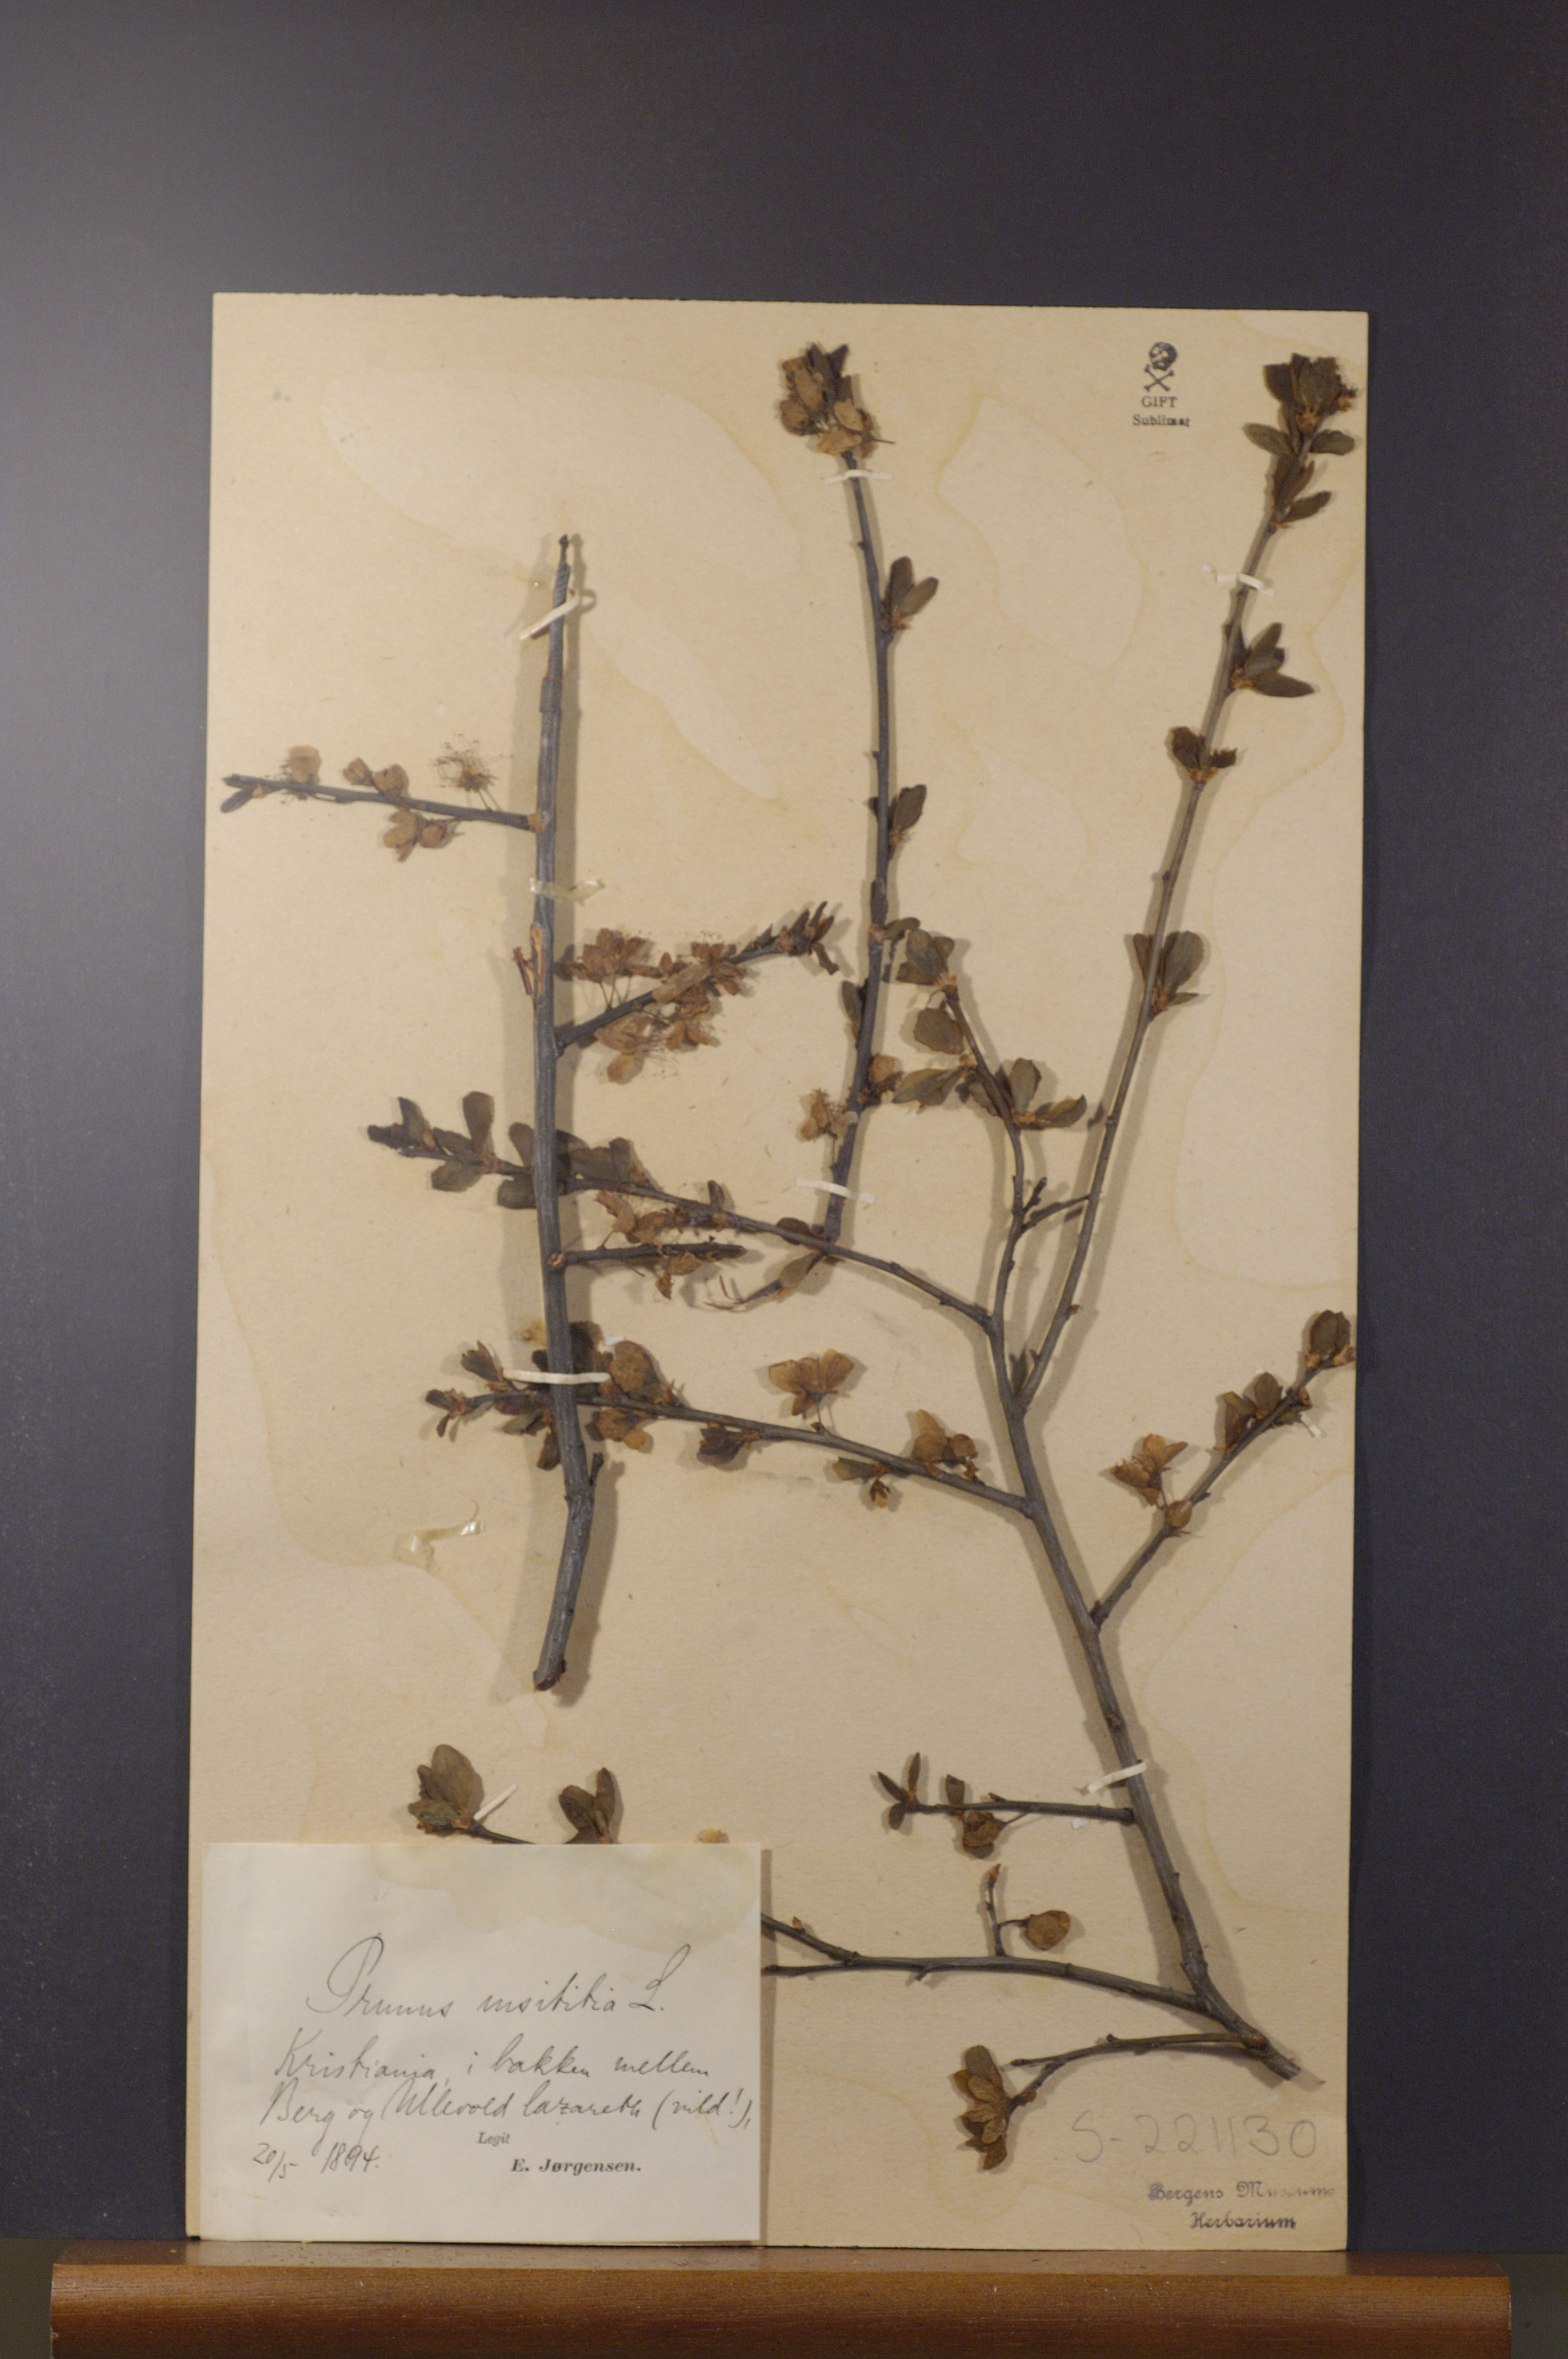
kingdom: Plantae
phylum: Tracheophyta
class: Magnoliopsida
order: Rosales
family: Rosaceae
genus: Prunus
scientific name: Prunus domestica
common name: Wild plum
